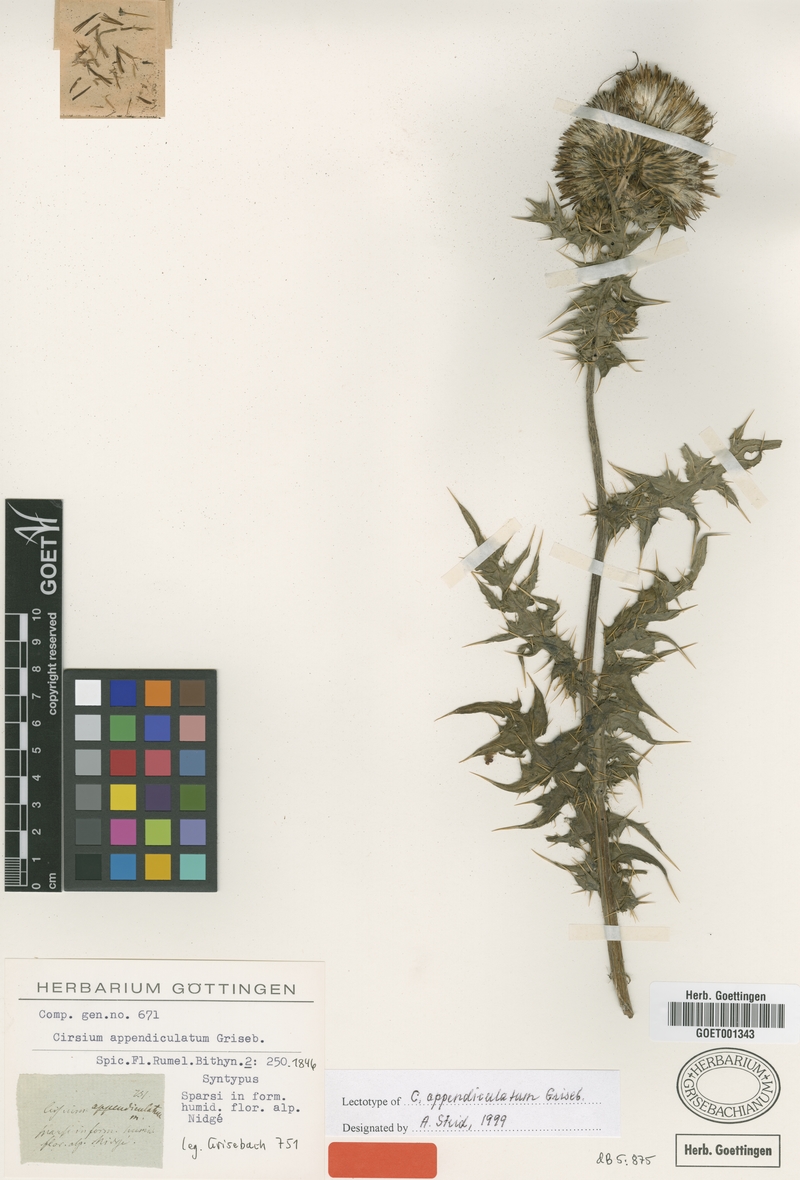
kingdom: Plantae
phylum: Tracheophyta
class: Magnoliopsida
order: Asterales
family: Asteraceae
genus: Cirsium
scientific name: Cirsium appendiculatum
